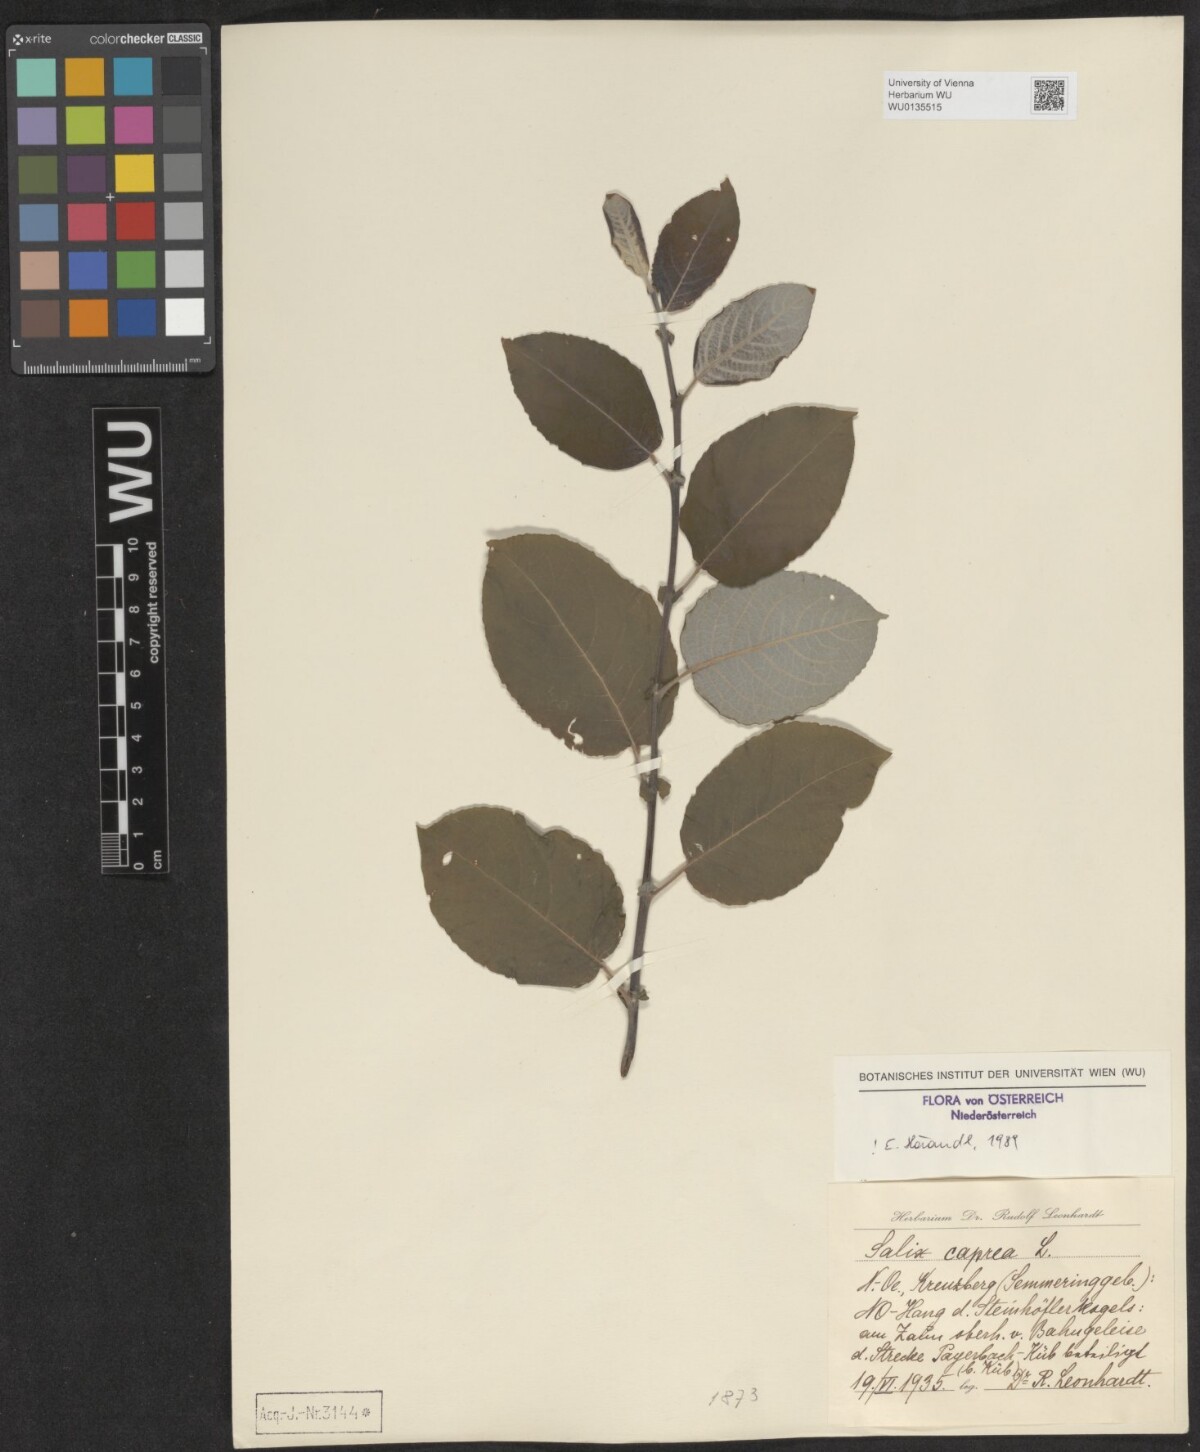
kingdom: Plantae
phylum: Tracheophyta
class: Magnoliopsida
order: Malpighiales
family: Salicaceae
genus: Salix
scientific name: Salix caprea
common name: Goat willow
